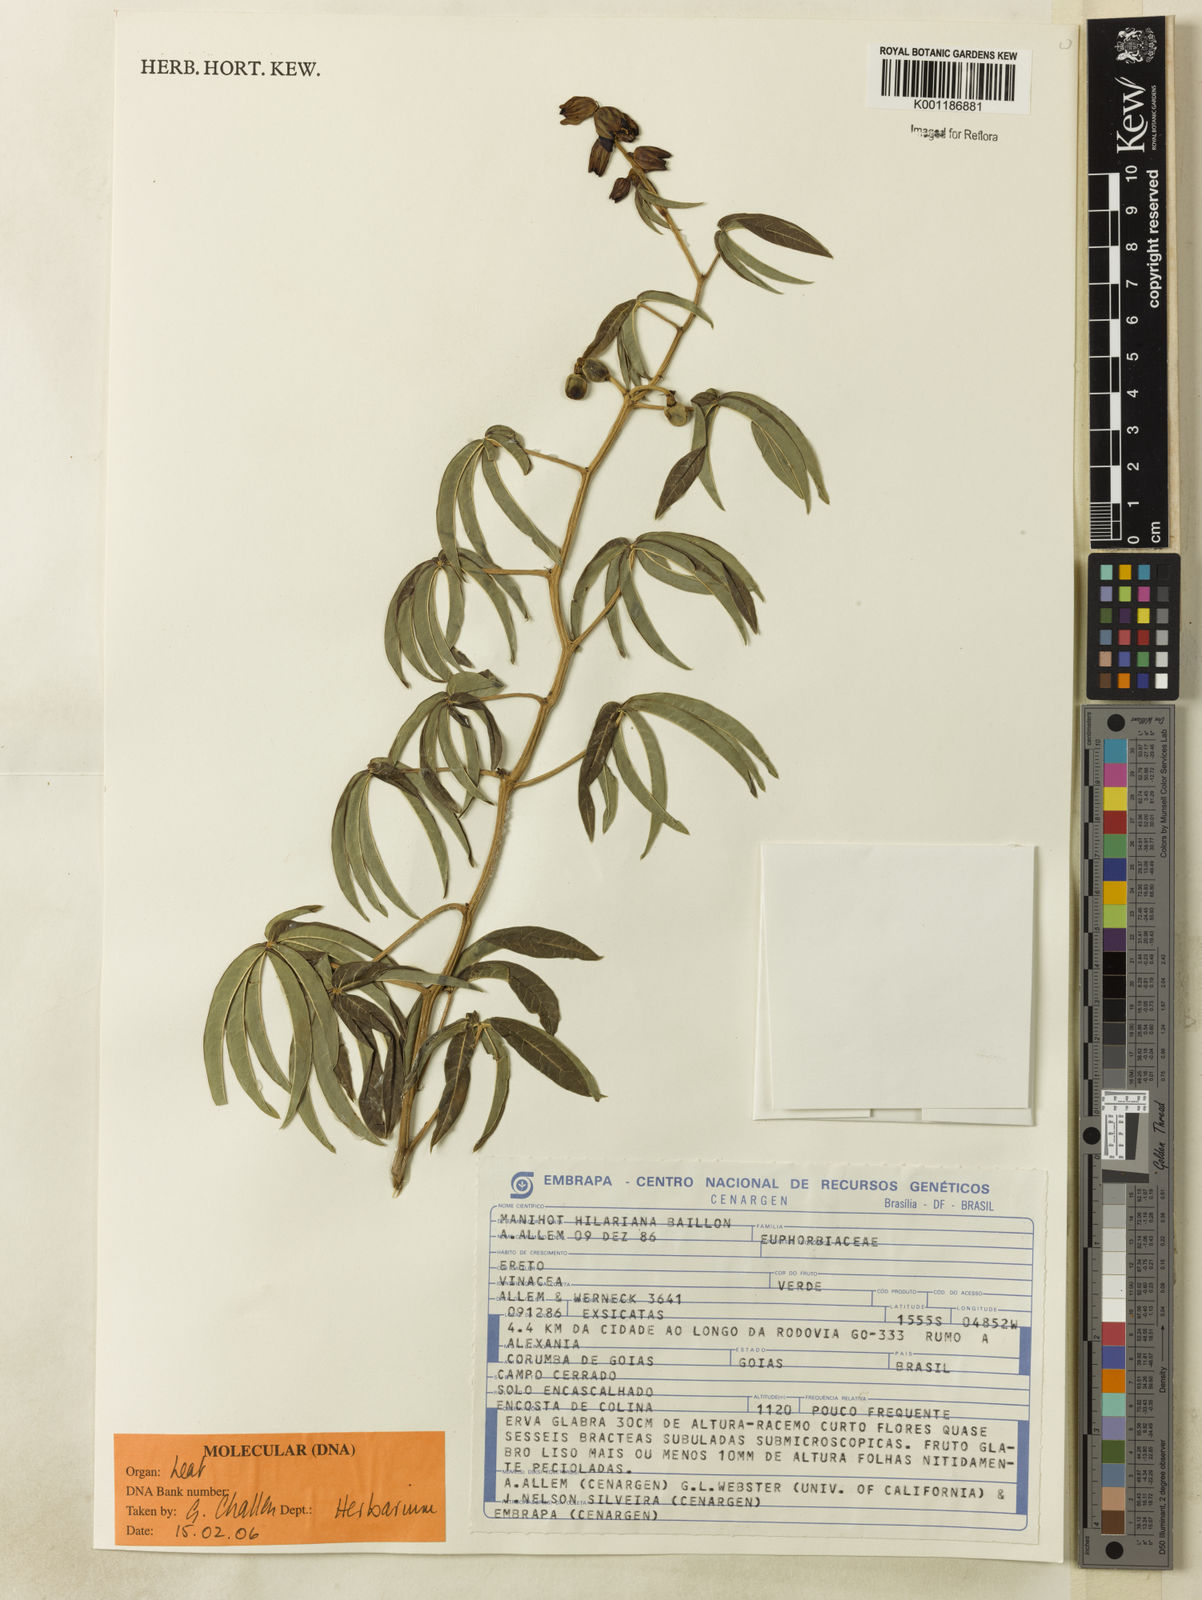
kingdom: Plantae
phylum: Tracheophyta
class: Magnoliopsida
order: Malpighiales
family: Euphorbiaceae
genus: Manihot
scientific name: Manihot hilariana
